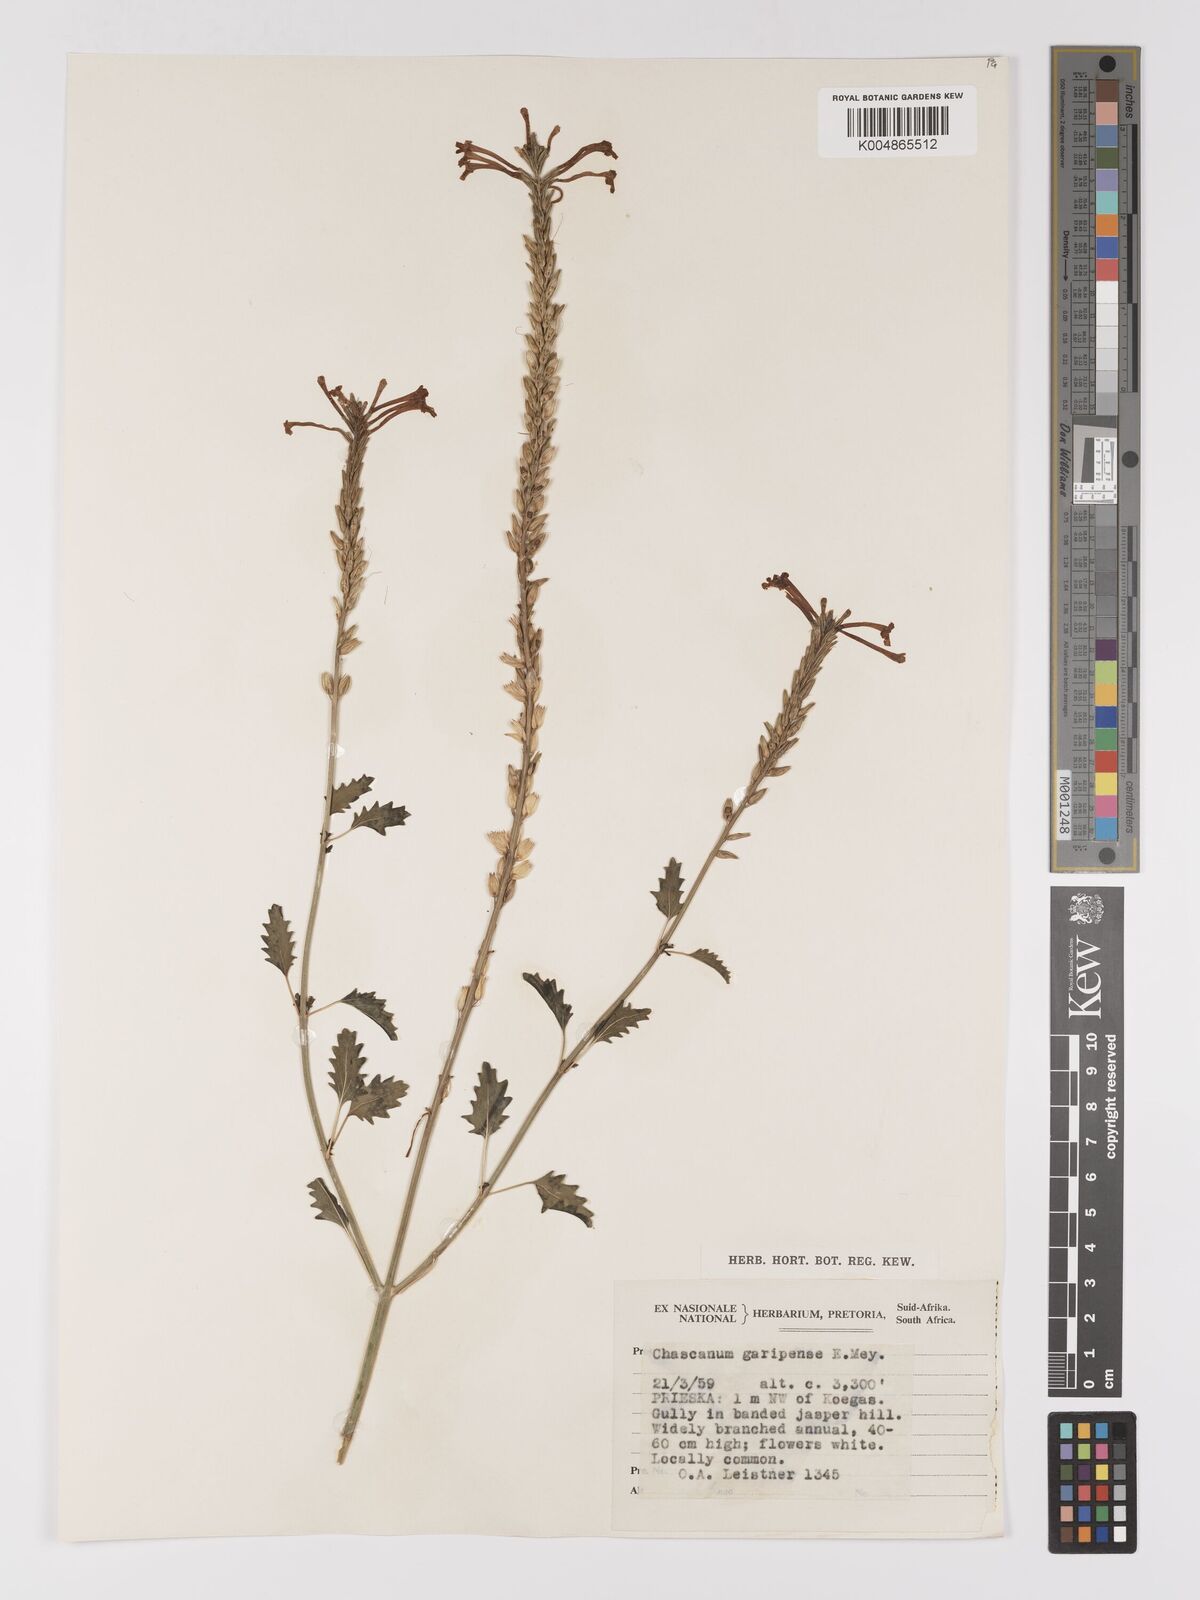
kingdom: Plantae
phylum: Tracheophyta
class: Magnoliopsida
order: Lamiales
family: Verbenaceae
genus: Chascanum
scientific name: Chascanum garipense
